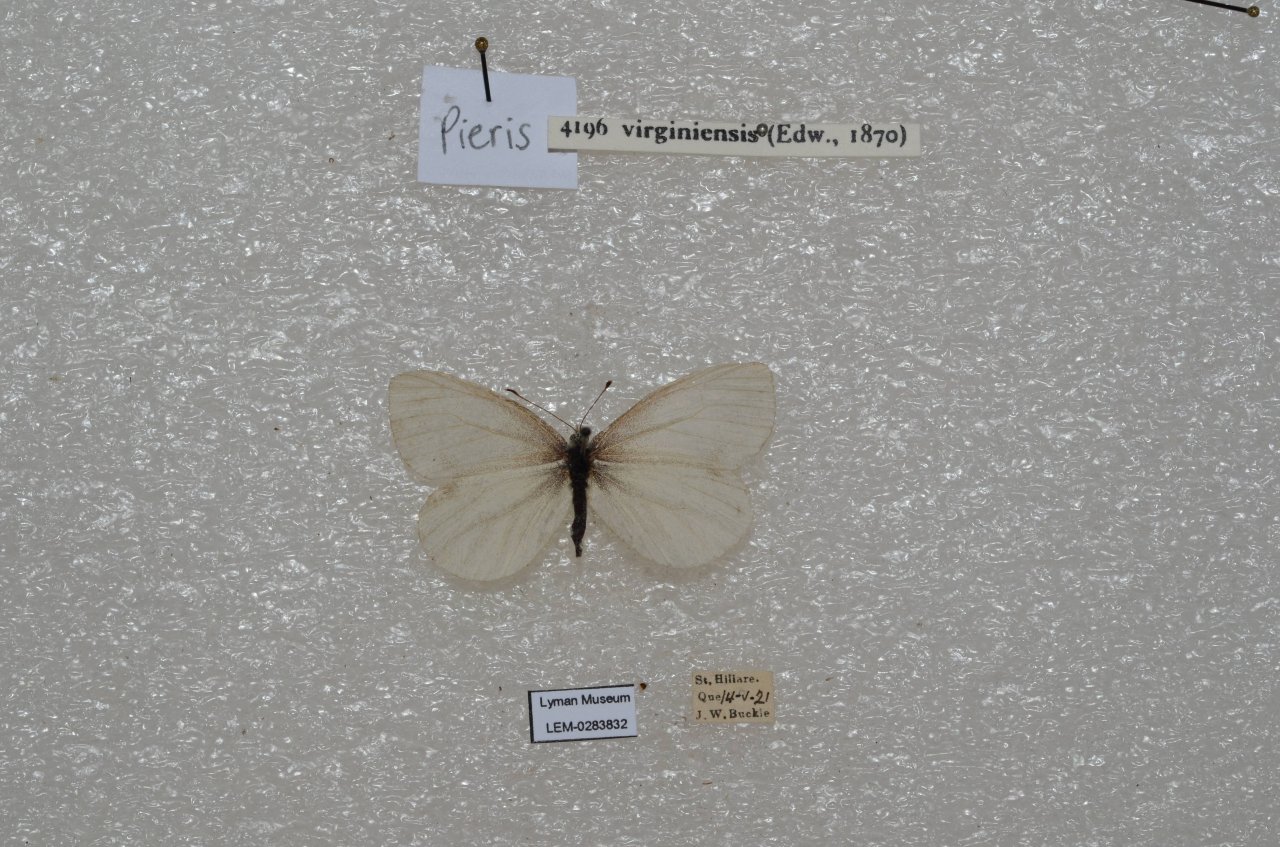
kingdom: Animalia
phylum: Arthropoda
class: Insecta
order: Lepidoptera
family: Pieridae
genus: Pieris
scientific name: Pieris virginiensis
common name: West Virginia White
